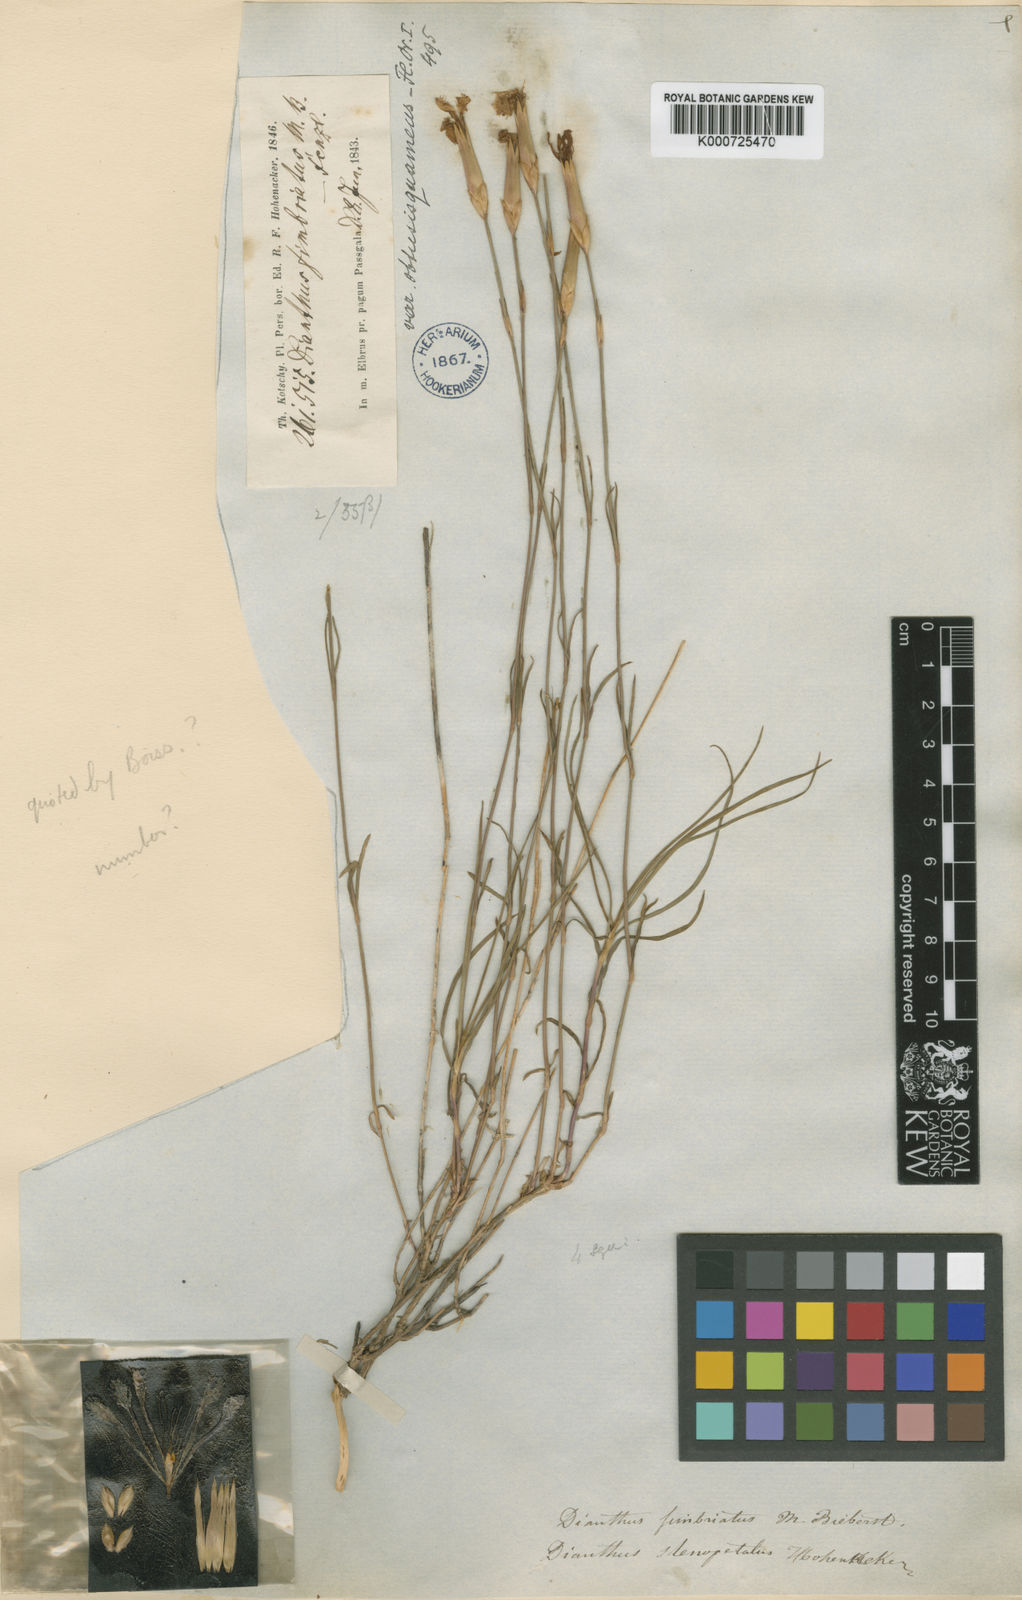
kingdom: Plantae
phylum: Tracheophyta
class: Magnoliopsida
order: Caryophyllales
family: Caryophyllaceae
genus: Dianthus
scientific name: Dianthus orientalis
